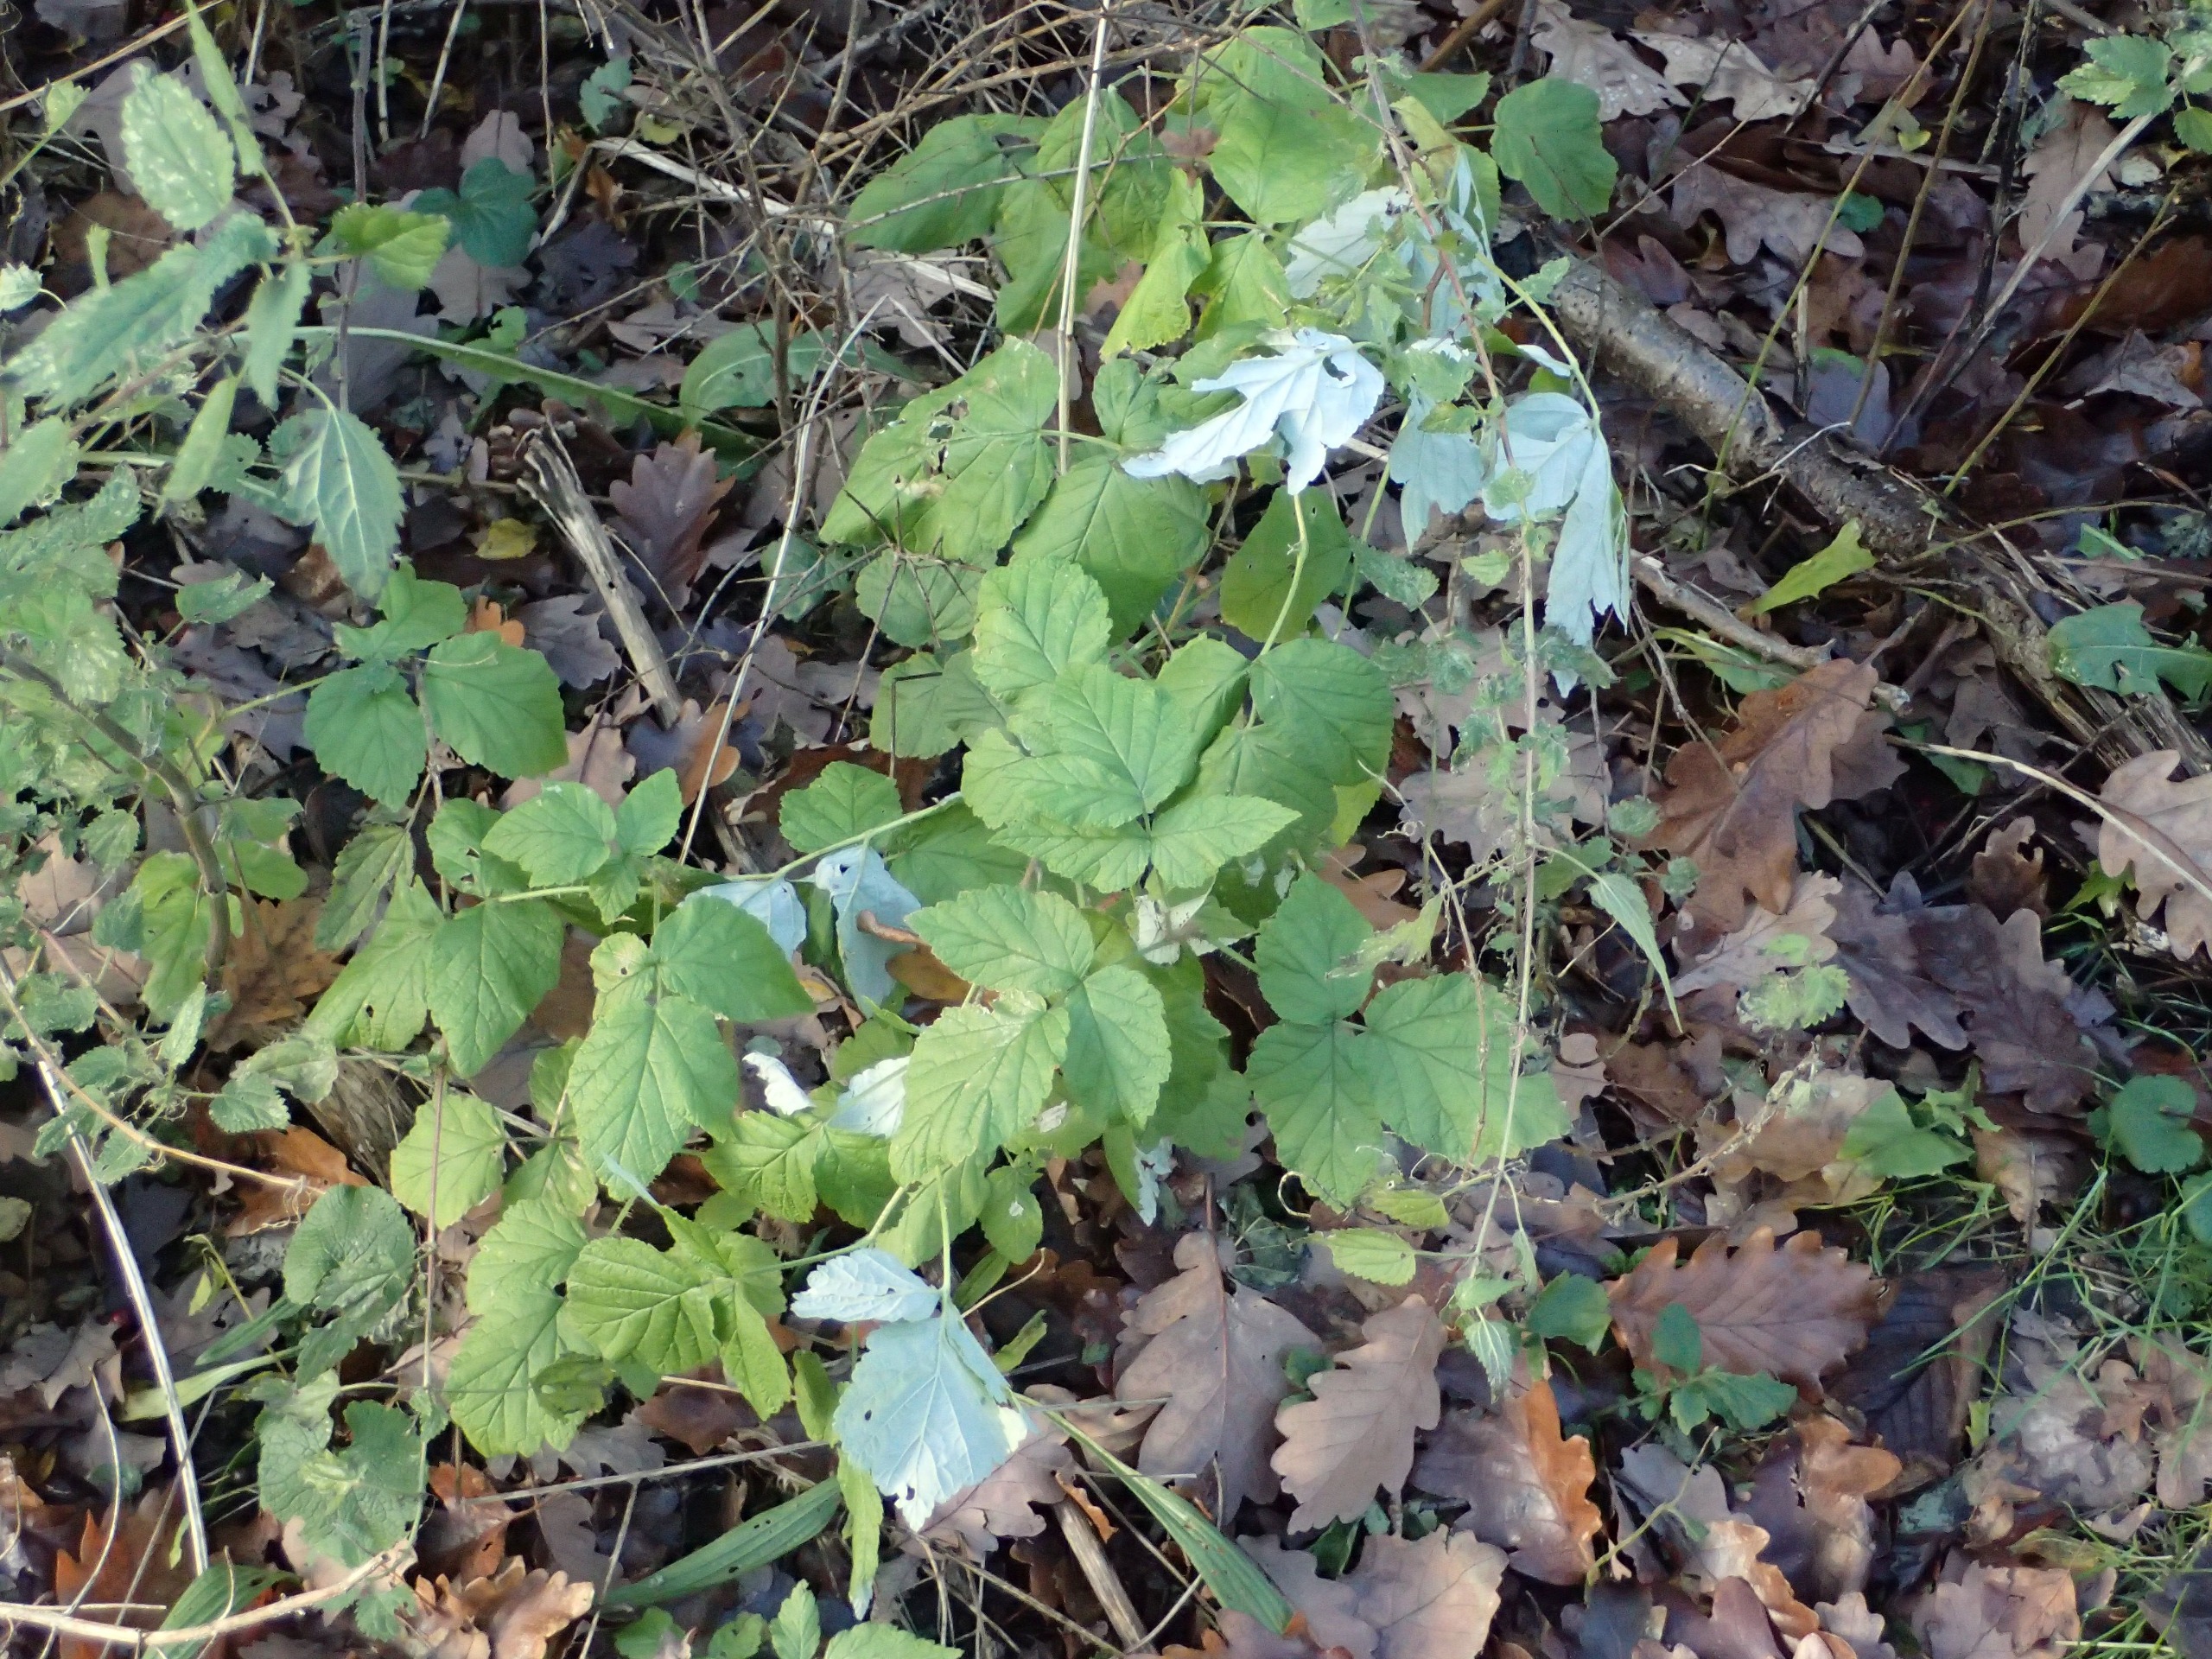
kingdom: Plantae
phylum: Tracheophyta
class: Magnoliopsida
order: Rosales
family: Rosaceae
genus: Filipendula
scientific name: Filipendula ulmaria
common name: Almindelig mjødurt
